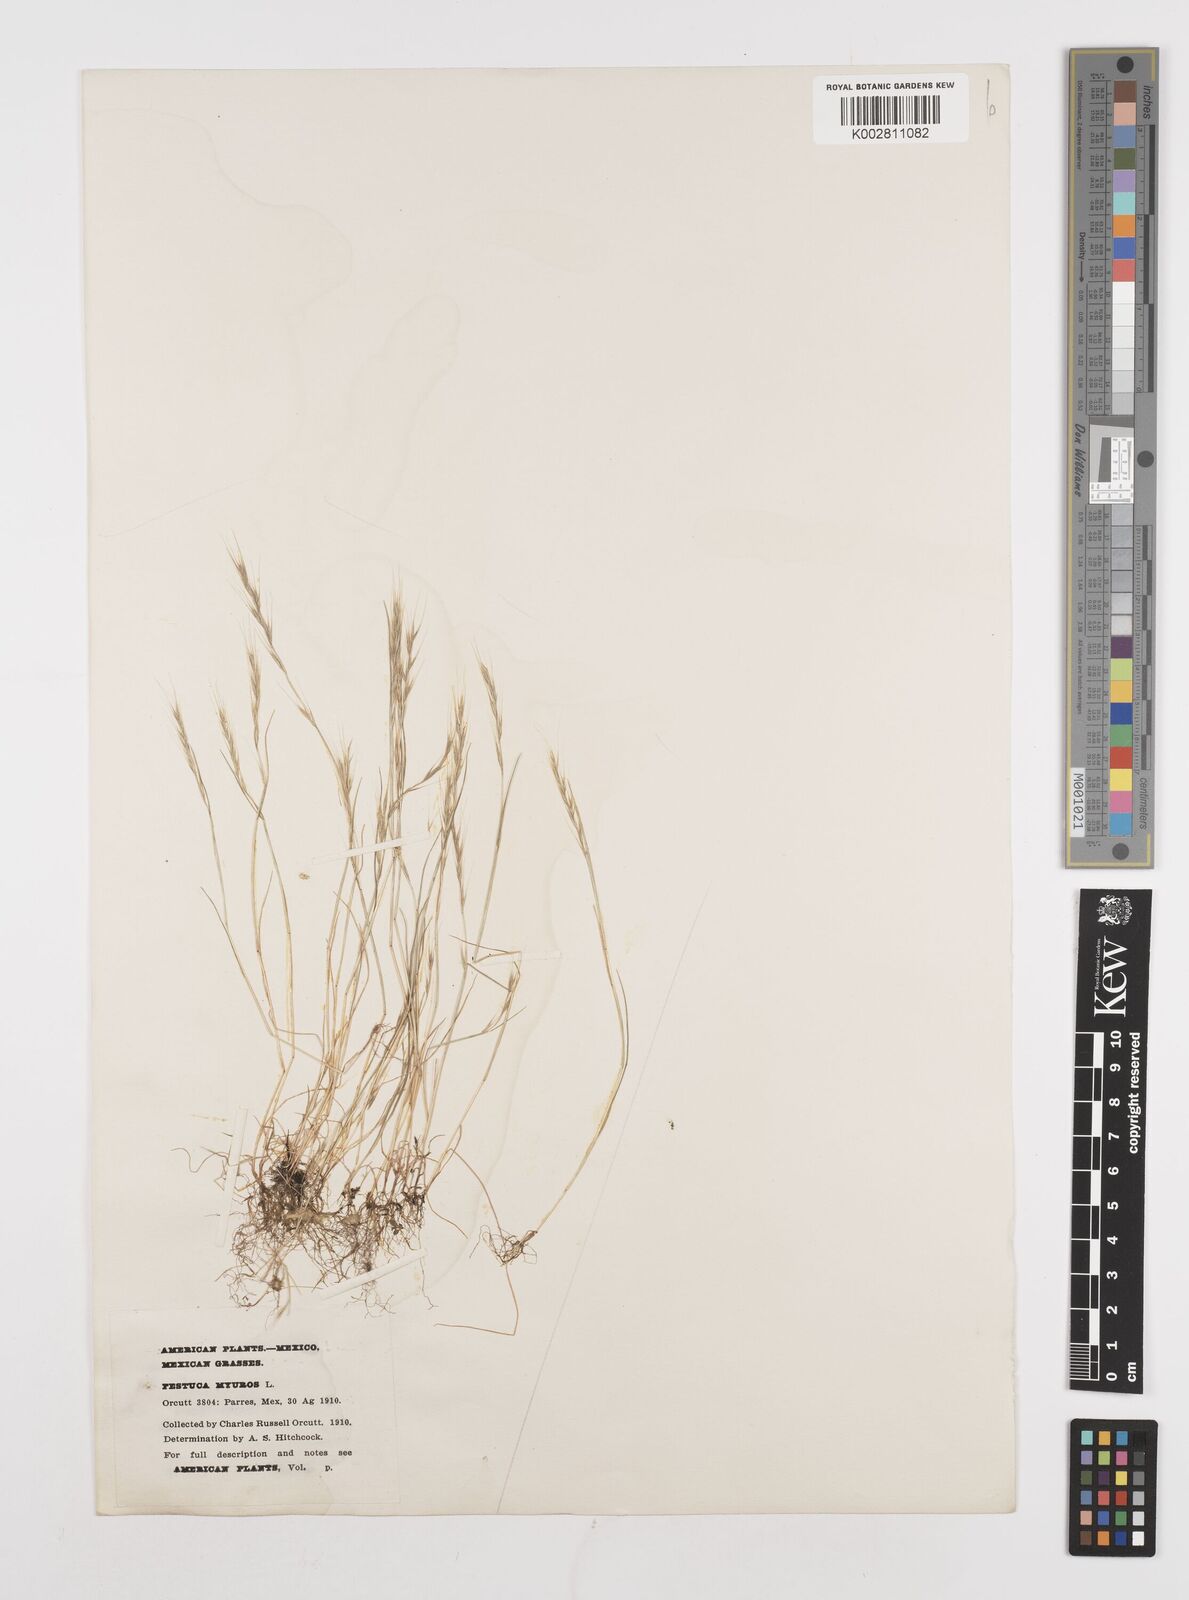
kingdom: Plantae
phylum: Tracheophyta
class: Liliopsida
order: Poales
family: Poaceae
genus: Festuca
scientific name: Festuca myuros
